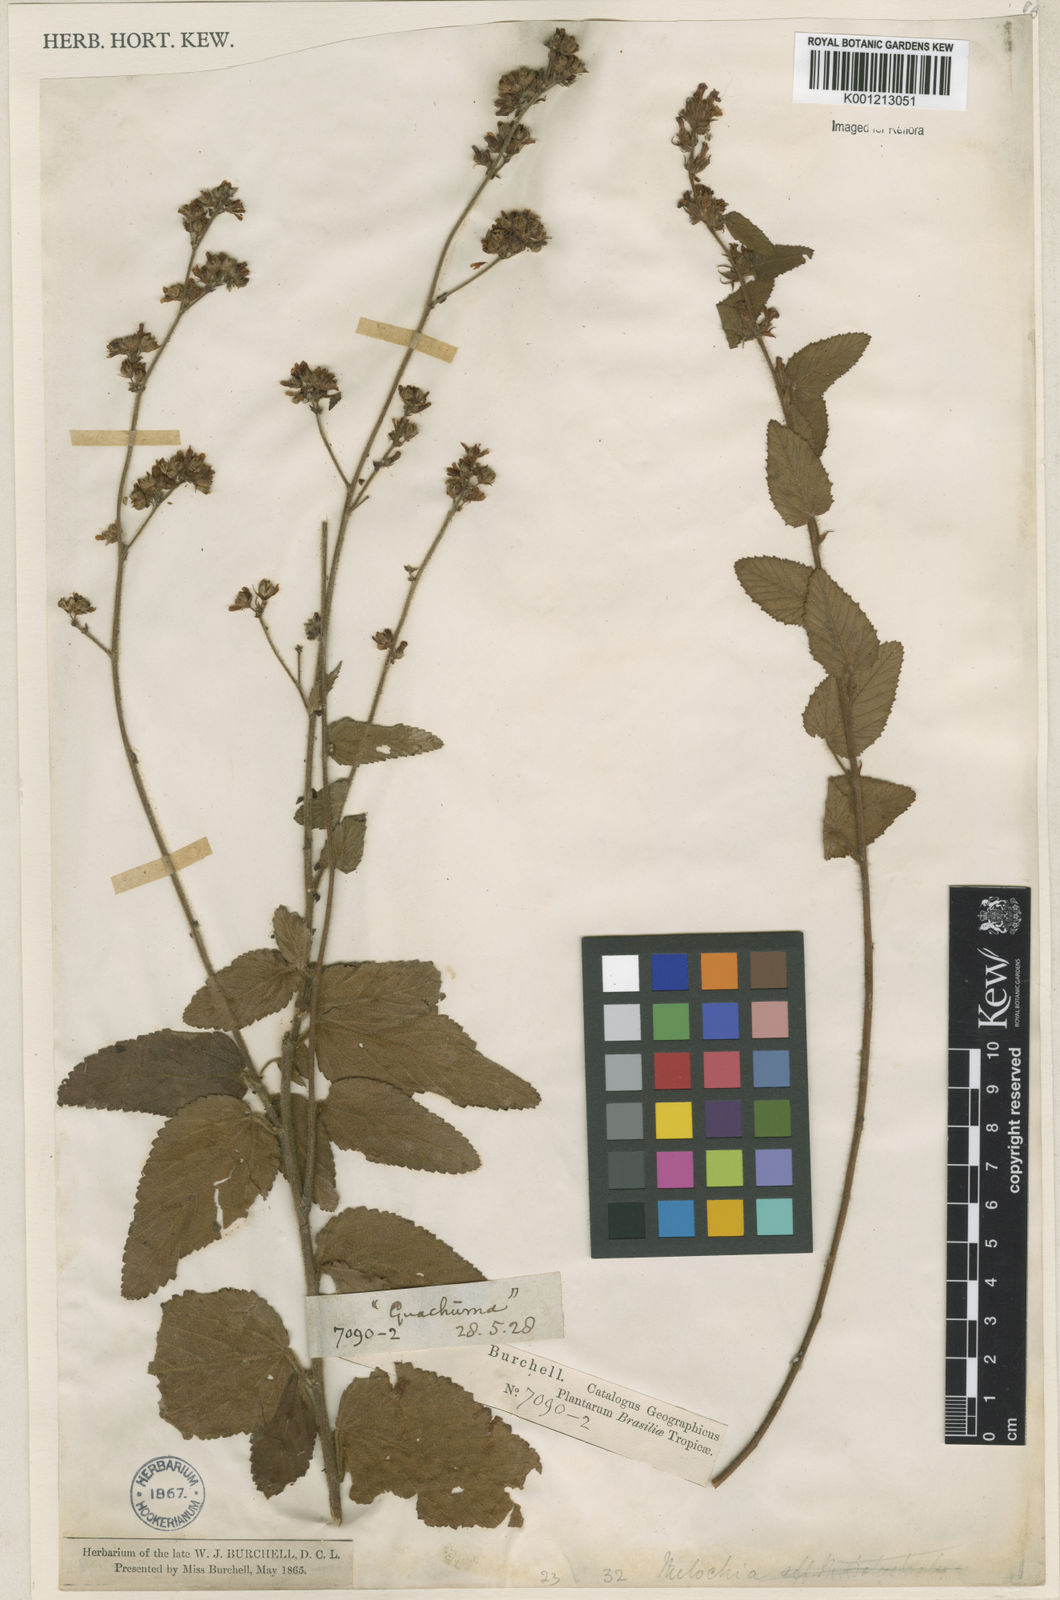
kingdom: Plantae
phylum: Tracheophyta
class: Magnoliopsida
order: Malvales
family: Malvaceae
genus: Melochia
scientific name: Melochia
